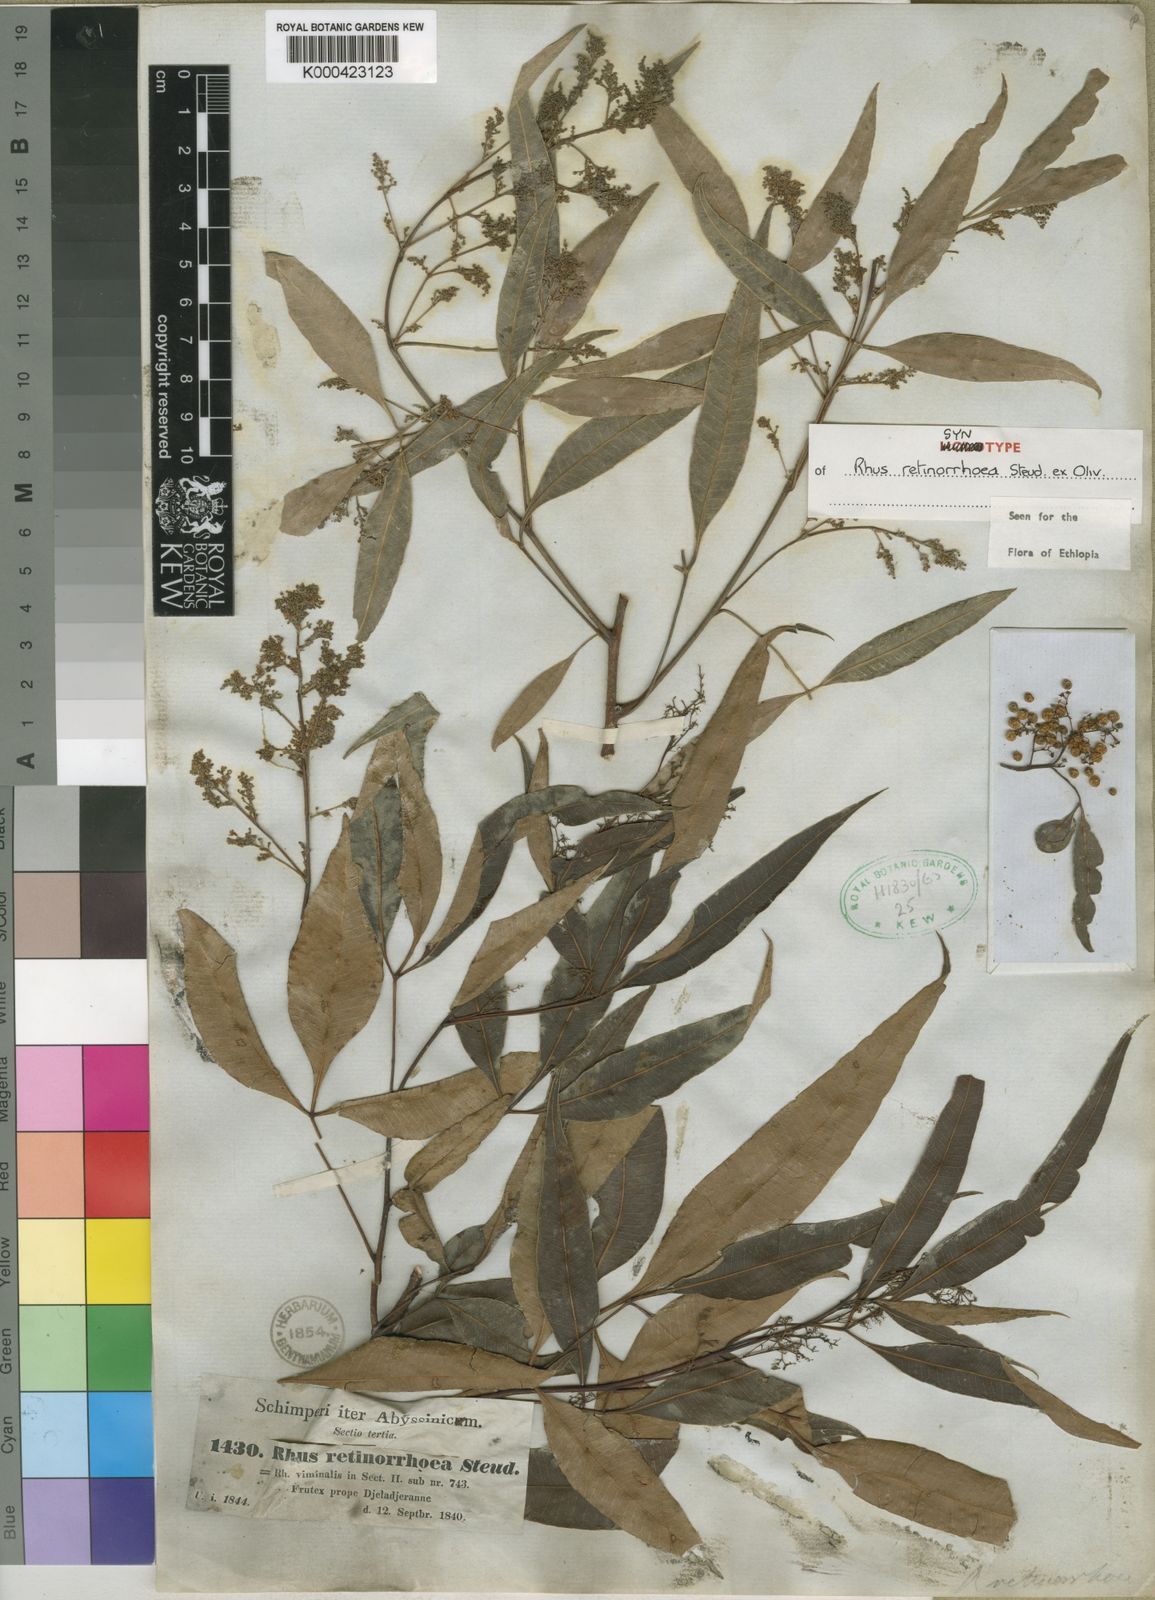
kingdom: Plantae
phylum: Tracheophyta
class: Magnoliopsida
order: Sapindales
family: Anacardiaceae
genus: Searsia
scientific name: Searsia retinorrhoea
